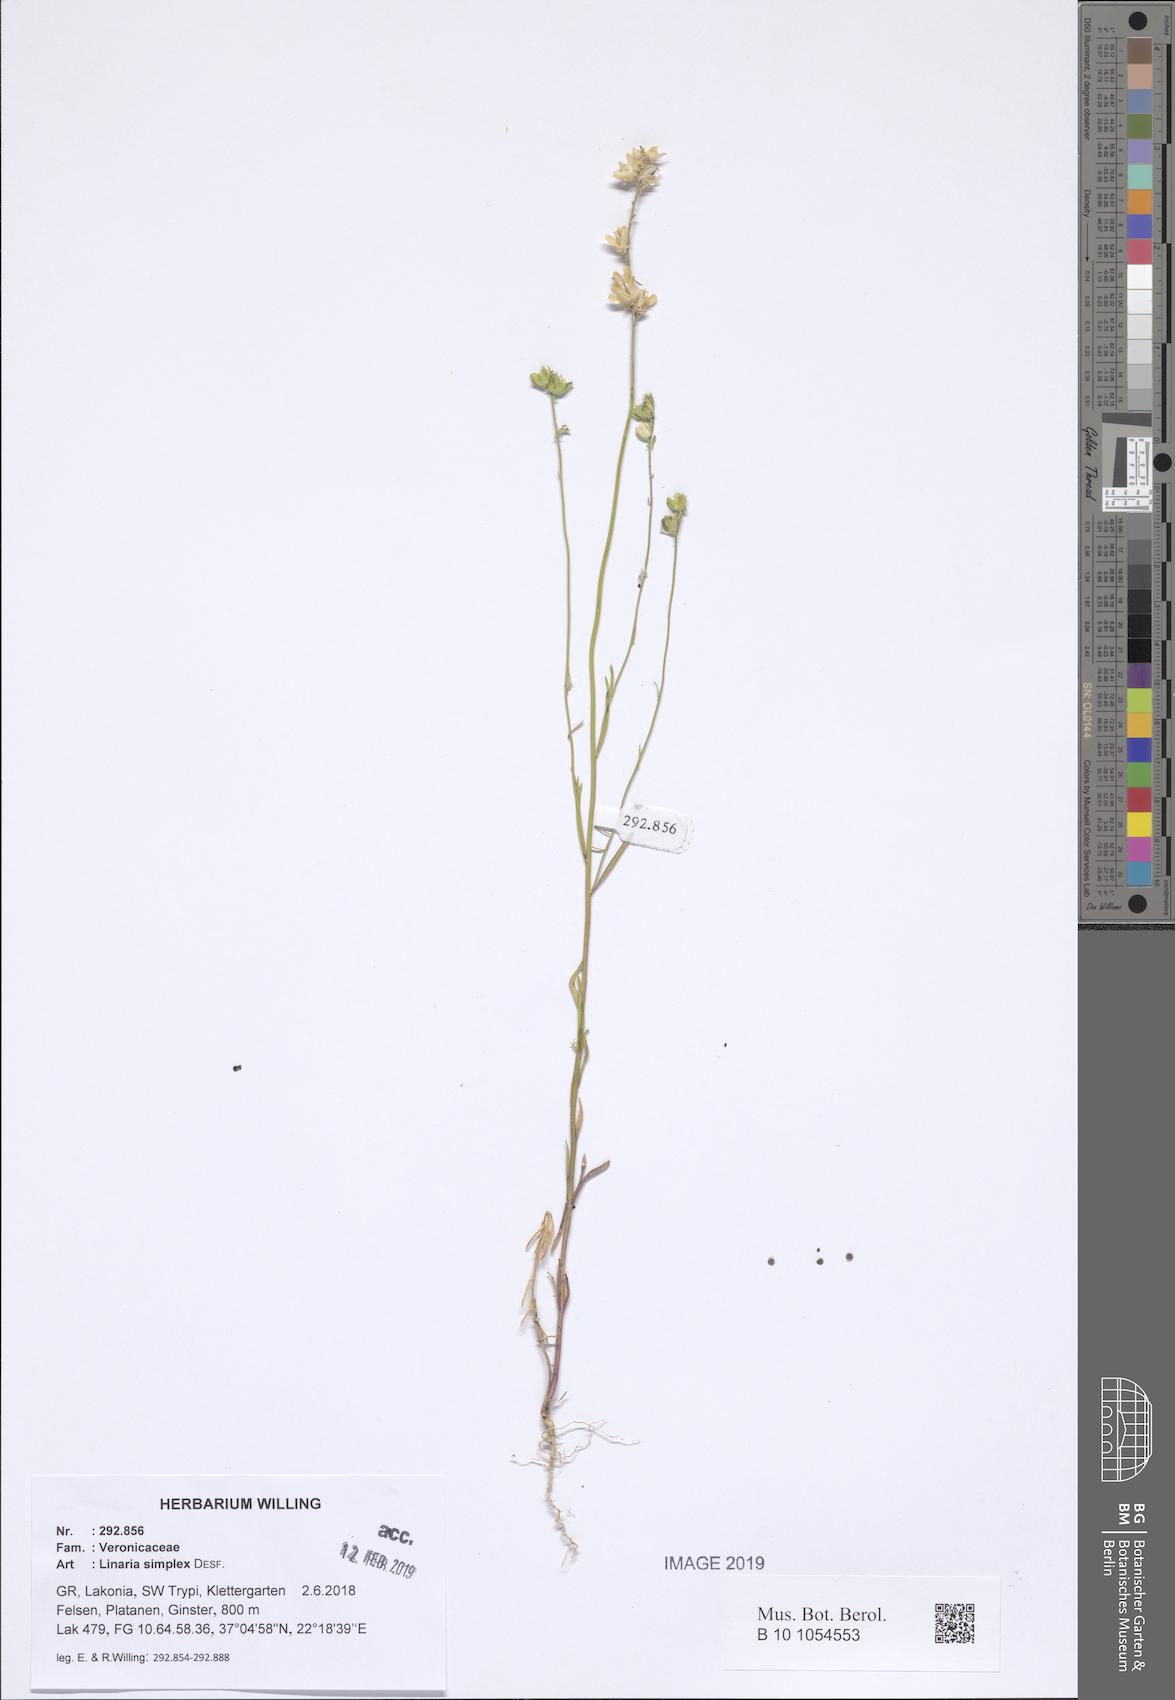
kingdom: Plantae
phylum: Tracheophyta
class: Magnoliopsida
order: Lamiales
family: Plantaginaceae
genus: Linaria
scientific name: Linaria simplex
